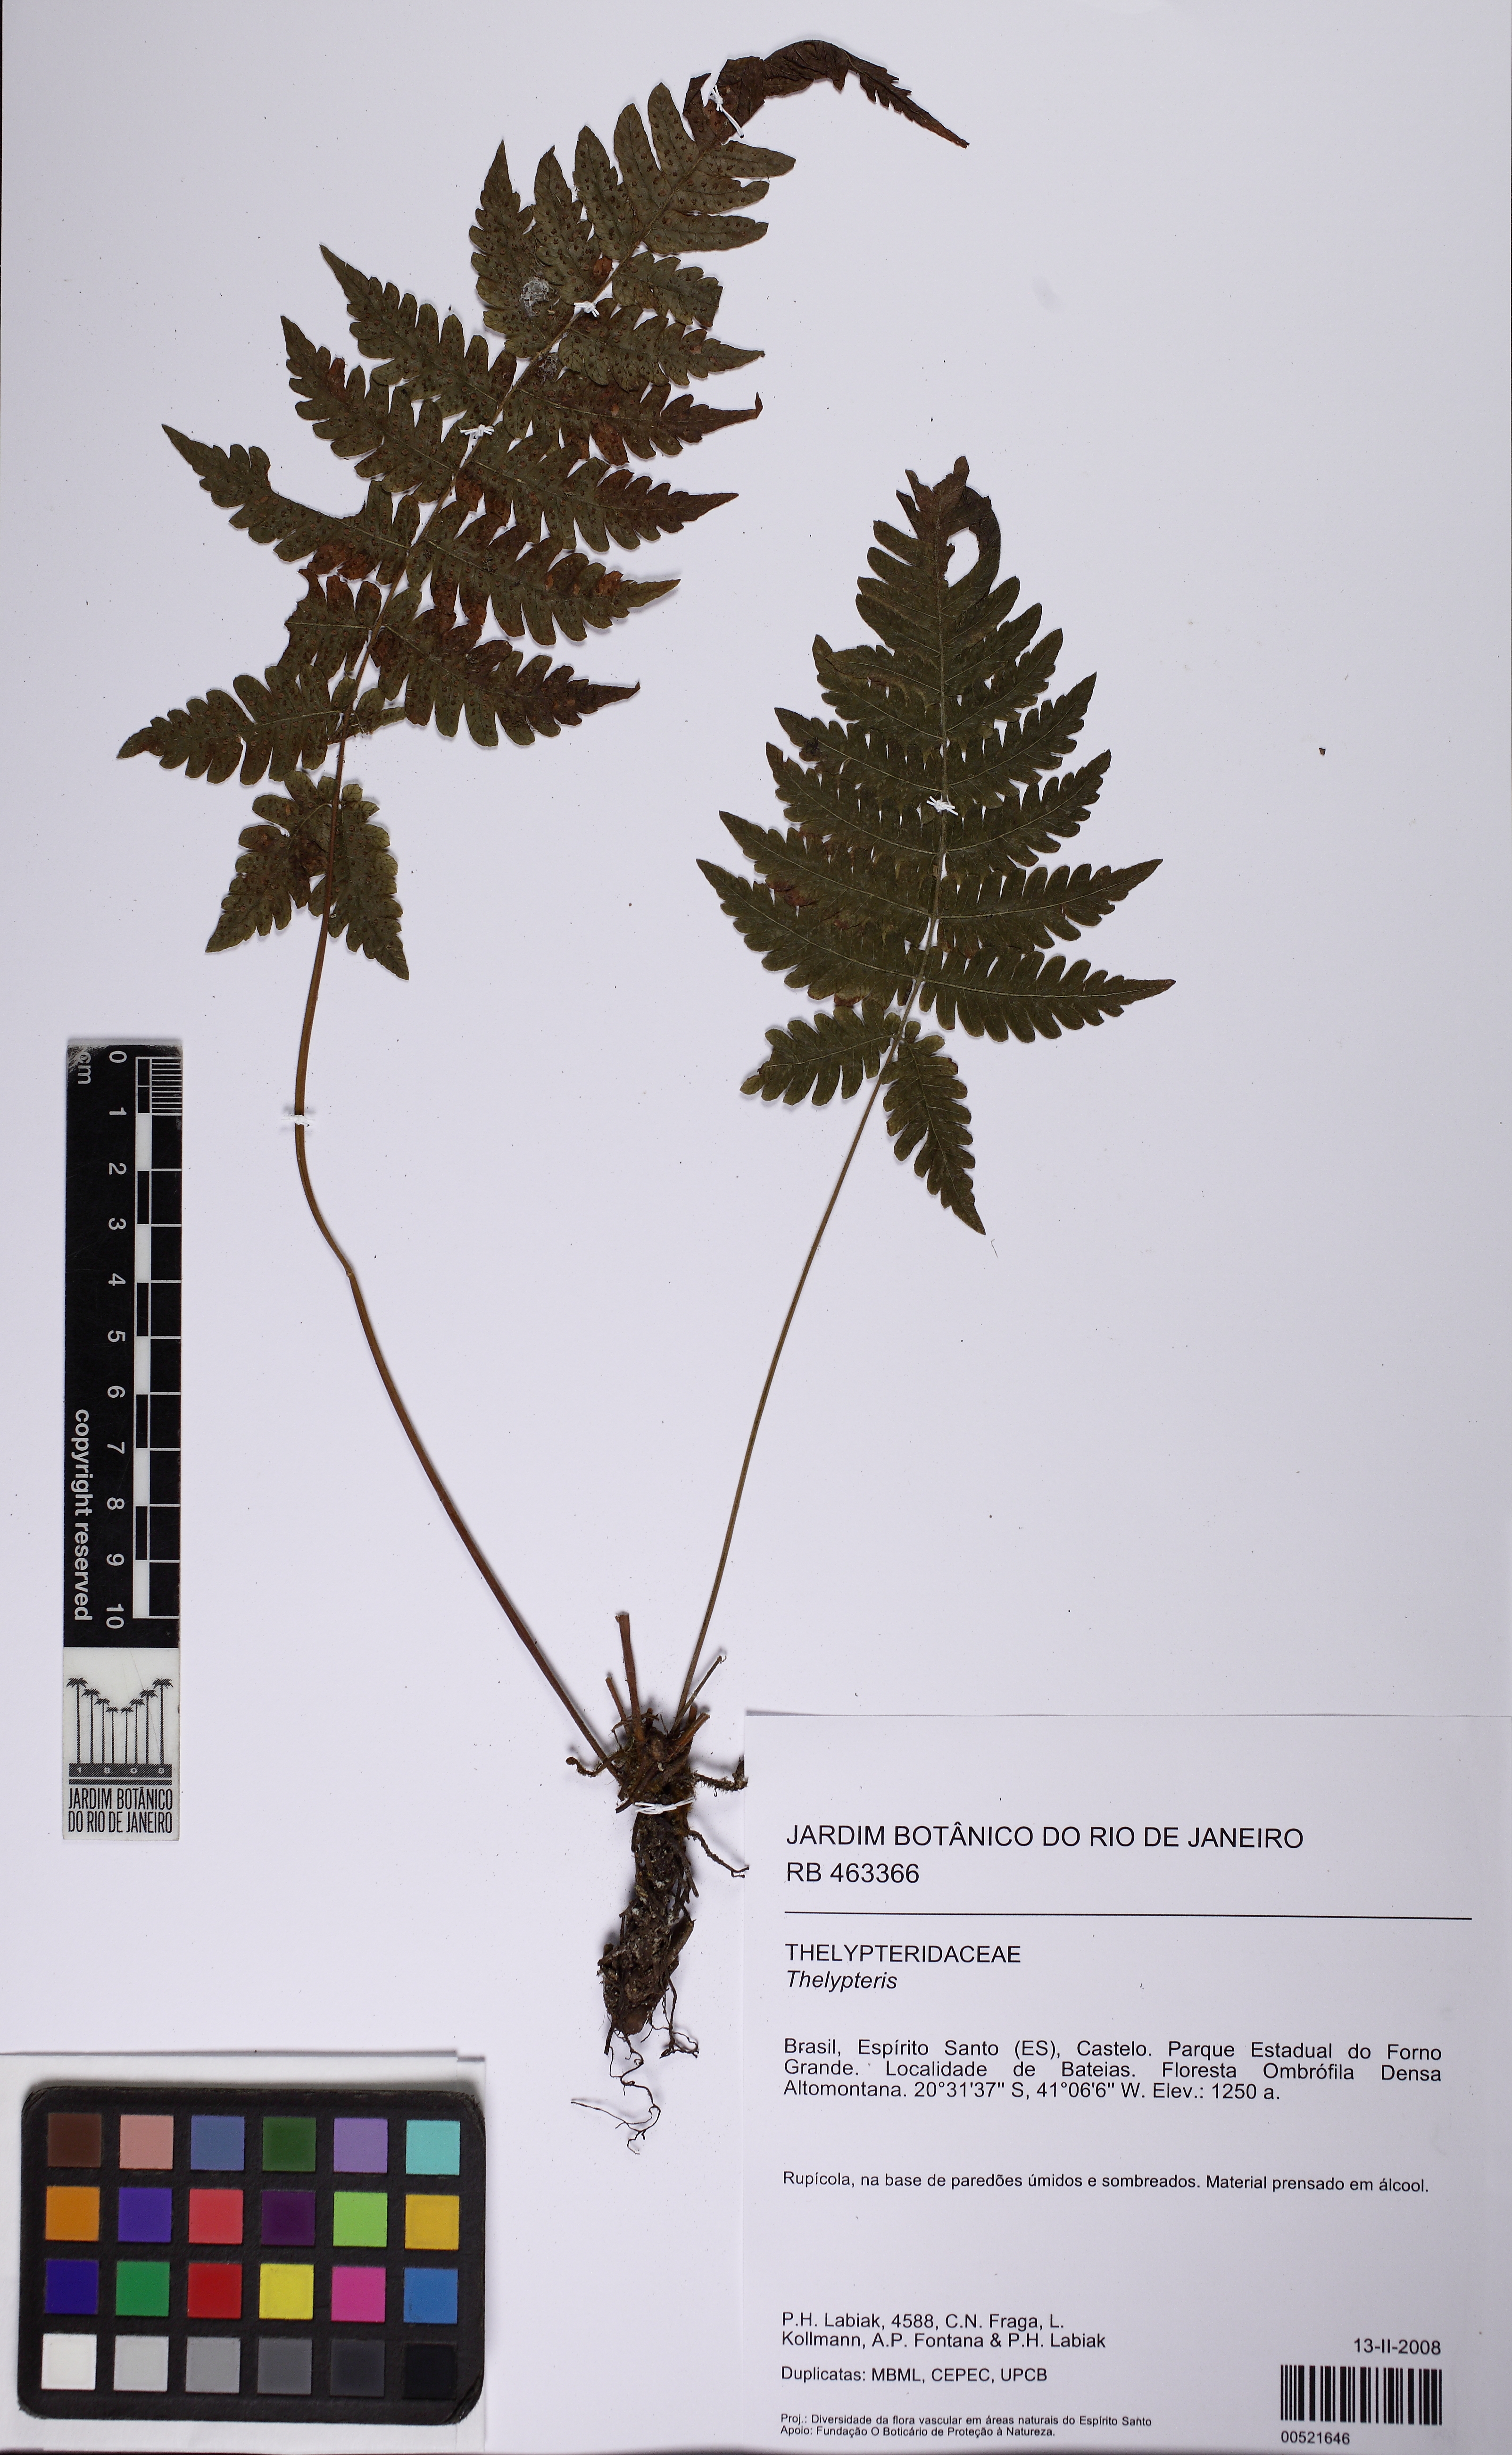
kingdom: Plantae
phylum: Tracheophyta
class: Polypodiopsida
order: Polypodiales
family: Thelypteridaceae
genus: Steiropteris
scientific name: Steiropteris gardneriana
